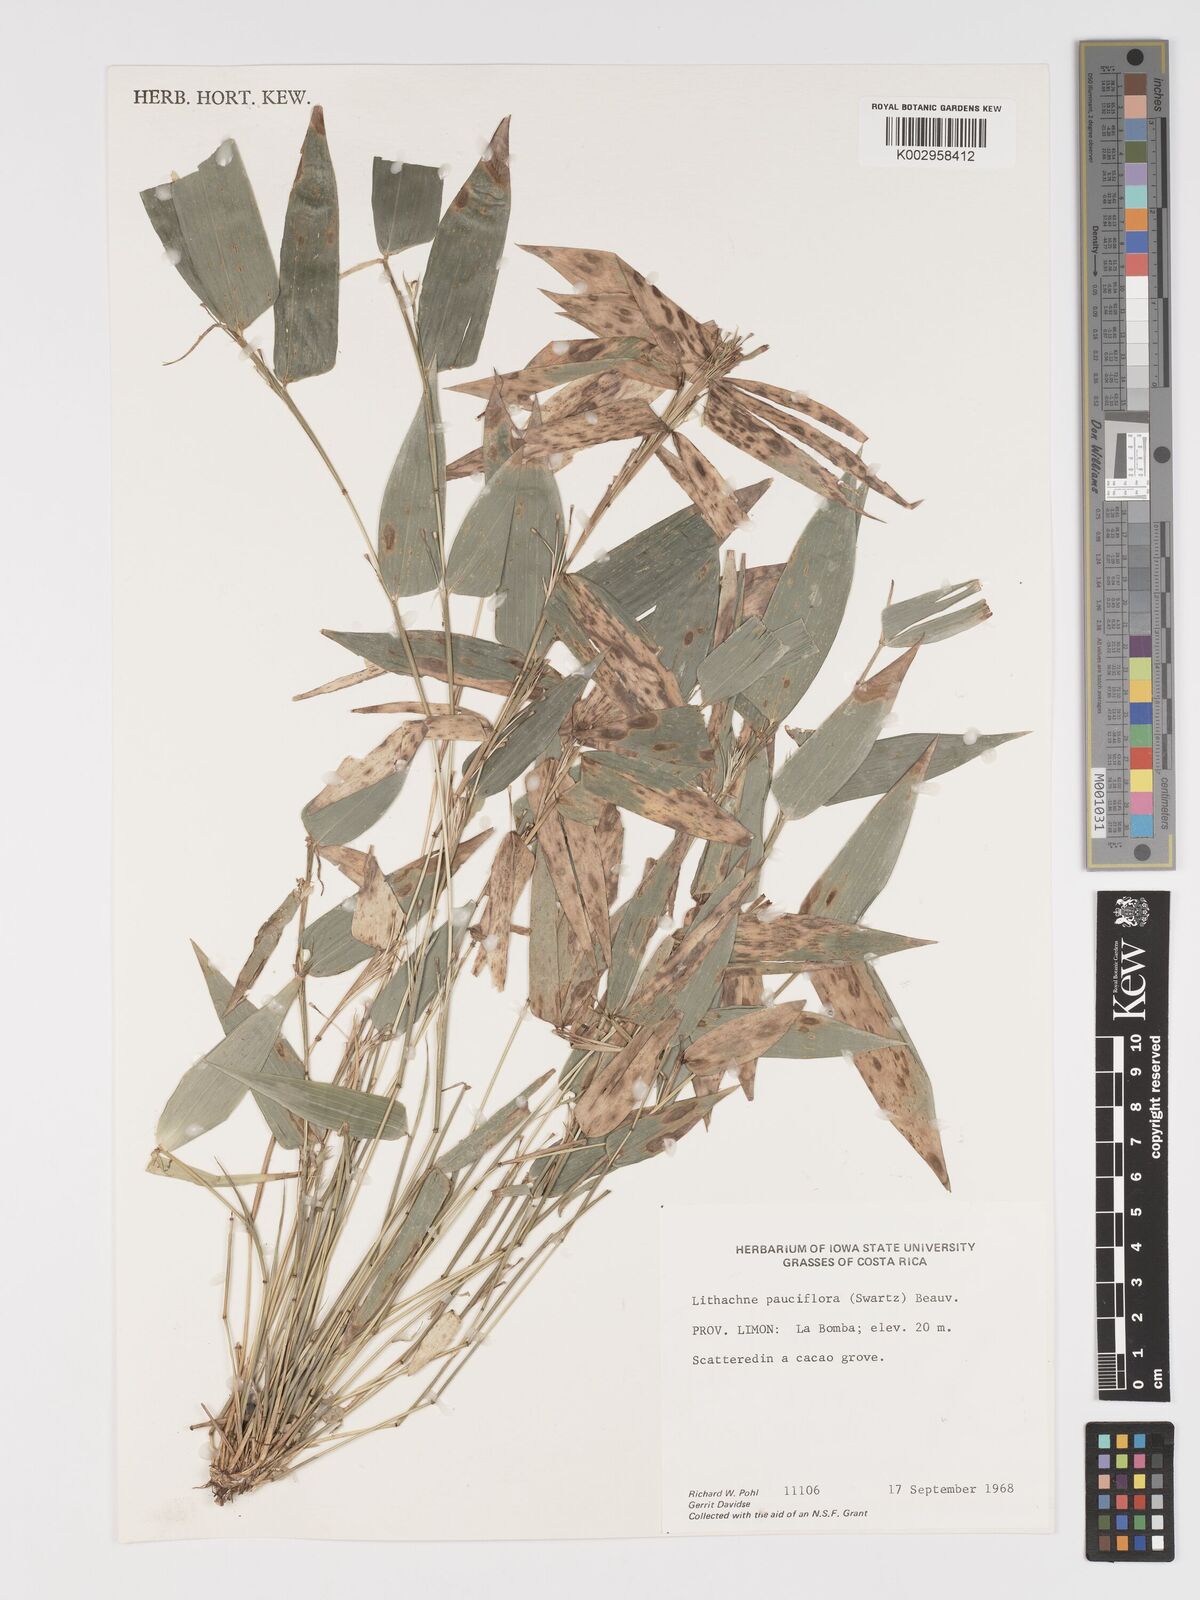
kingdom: Plantae
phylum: Tracheophyta
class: Liliopsida
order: Poales
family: Poaceae
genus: Lithachne
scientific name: Lithachne pauciflora
